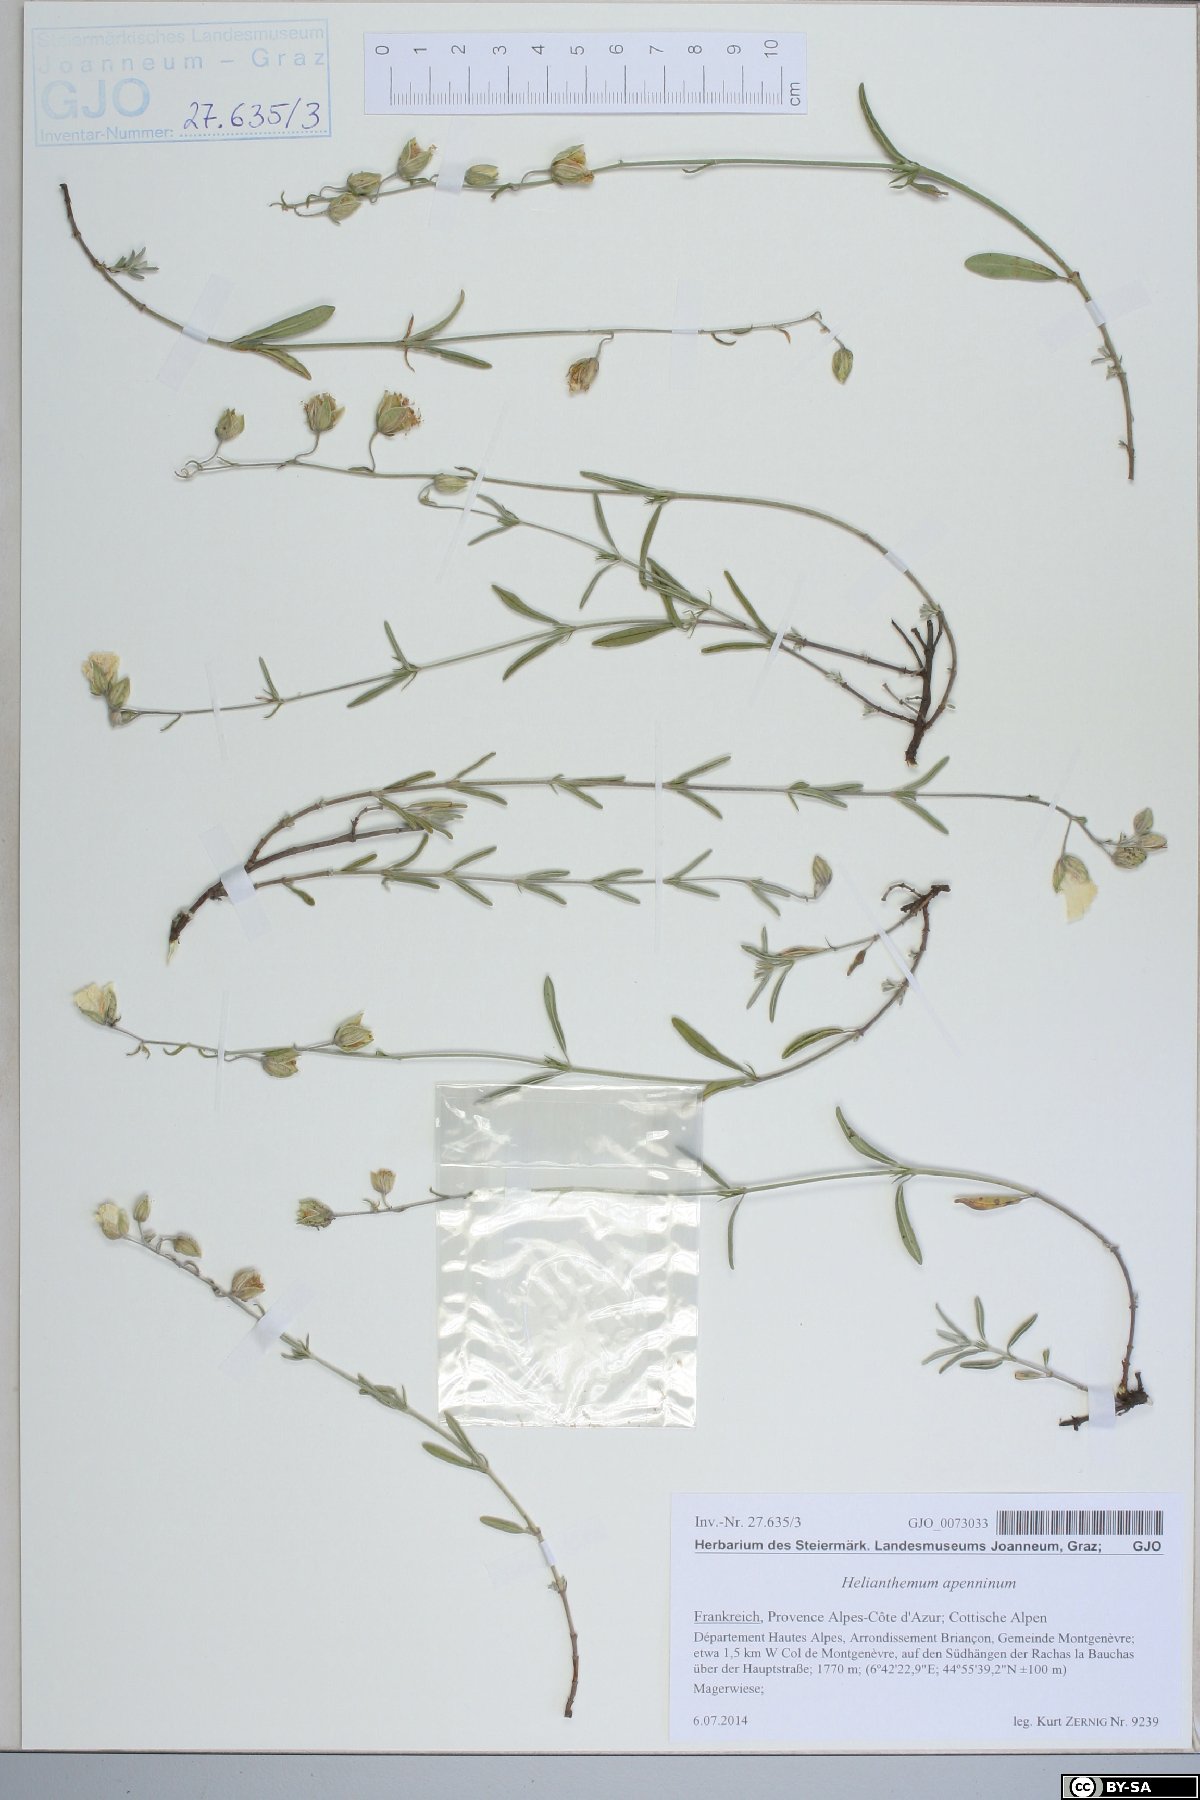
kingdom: Plantae
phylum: Tracheophyta
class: Magnoliopsida
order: Malvales
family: Cistaceae
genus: Helianthemum
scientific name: Helianthemum apenninum
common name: White rock-rose
